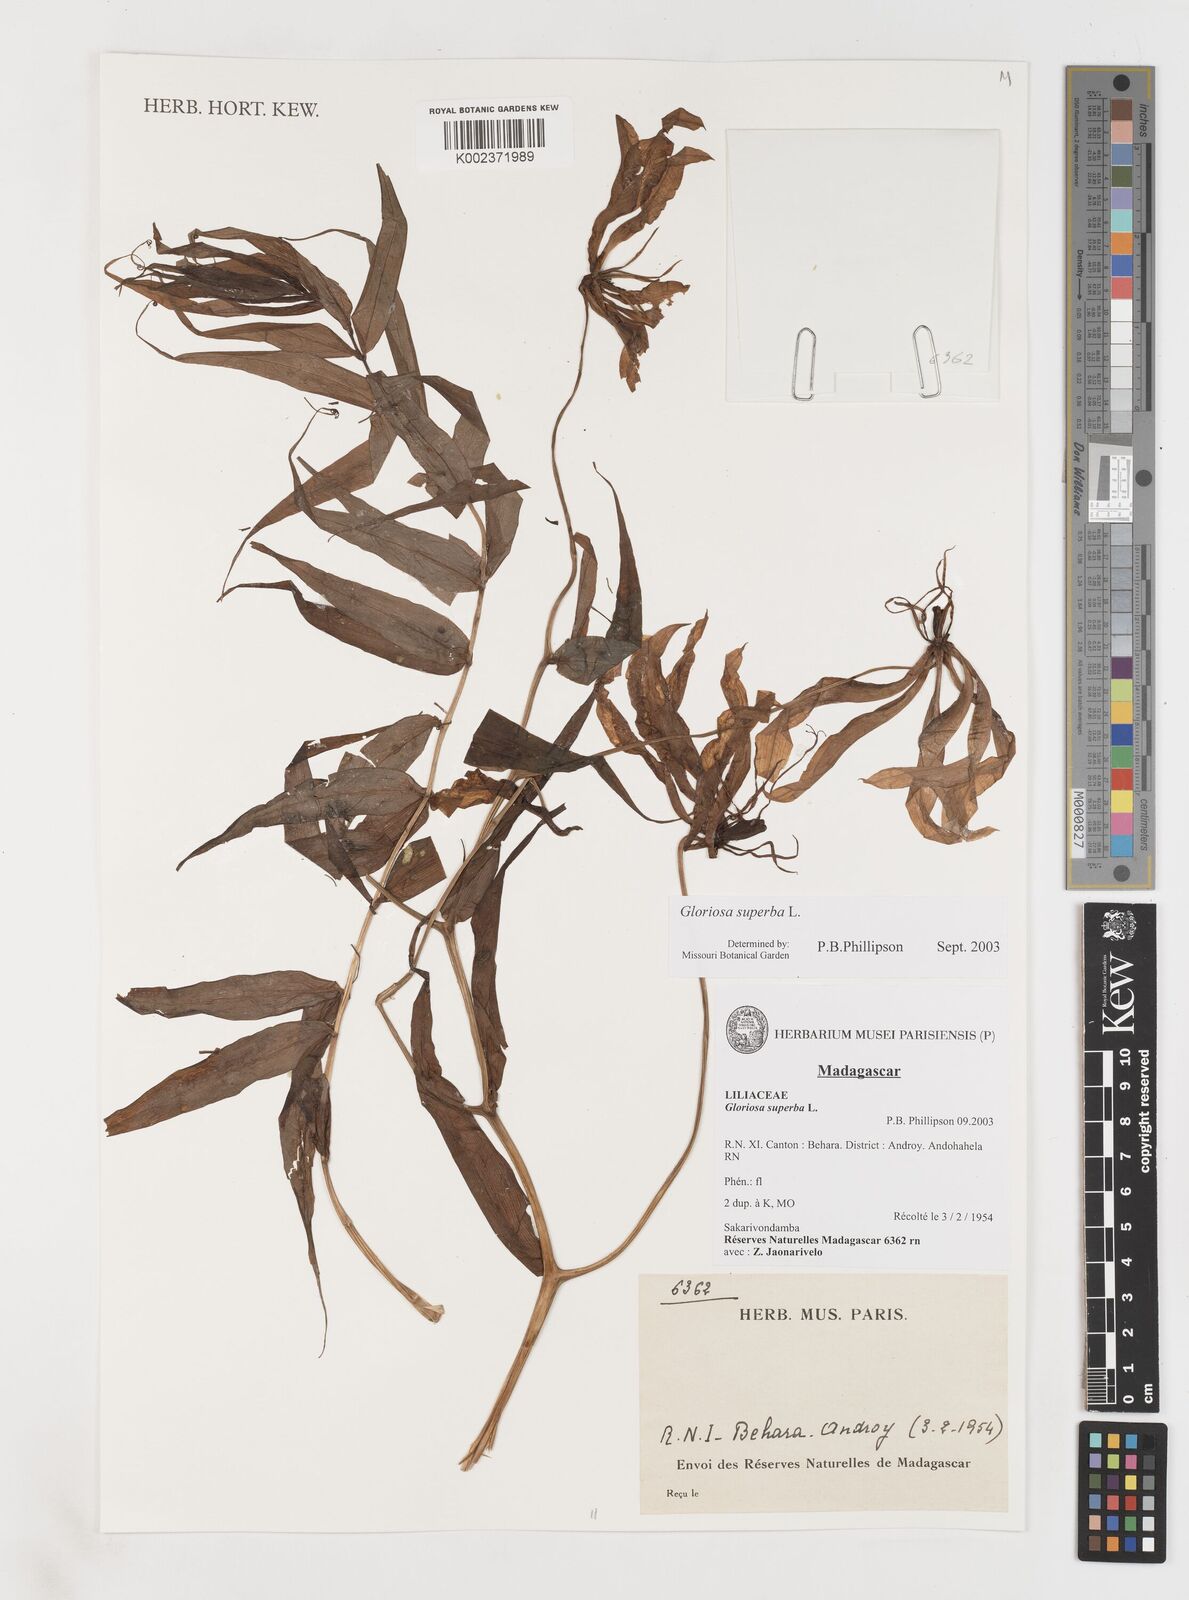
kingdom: Plantae
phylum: Tracheophyta
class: Liliopsida
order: Liliales
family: Colchicaceae
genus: Gloriosa
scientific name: Gloriosa simplex
